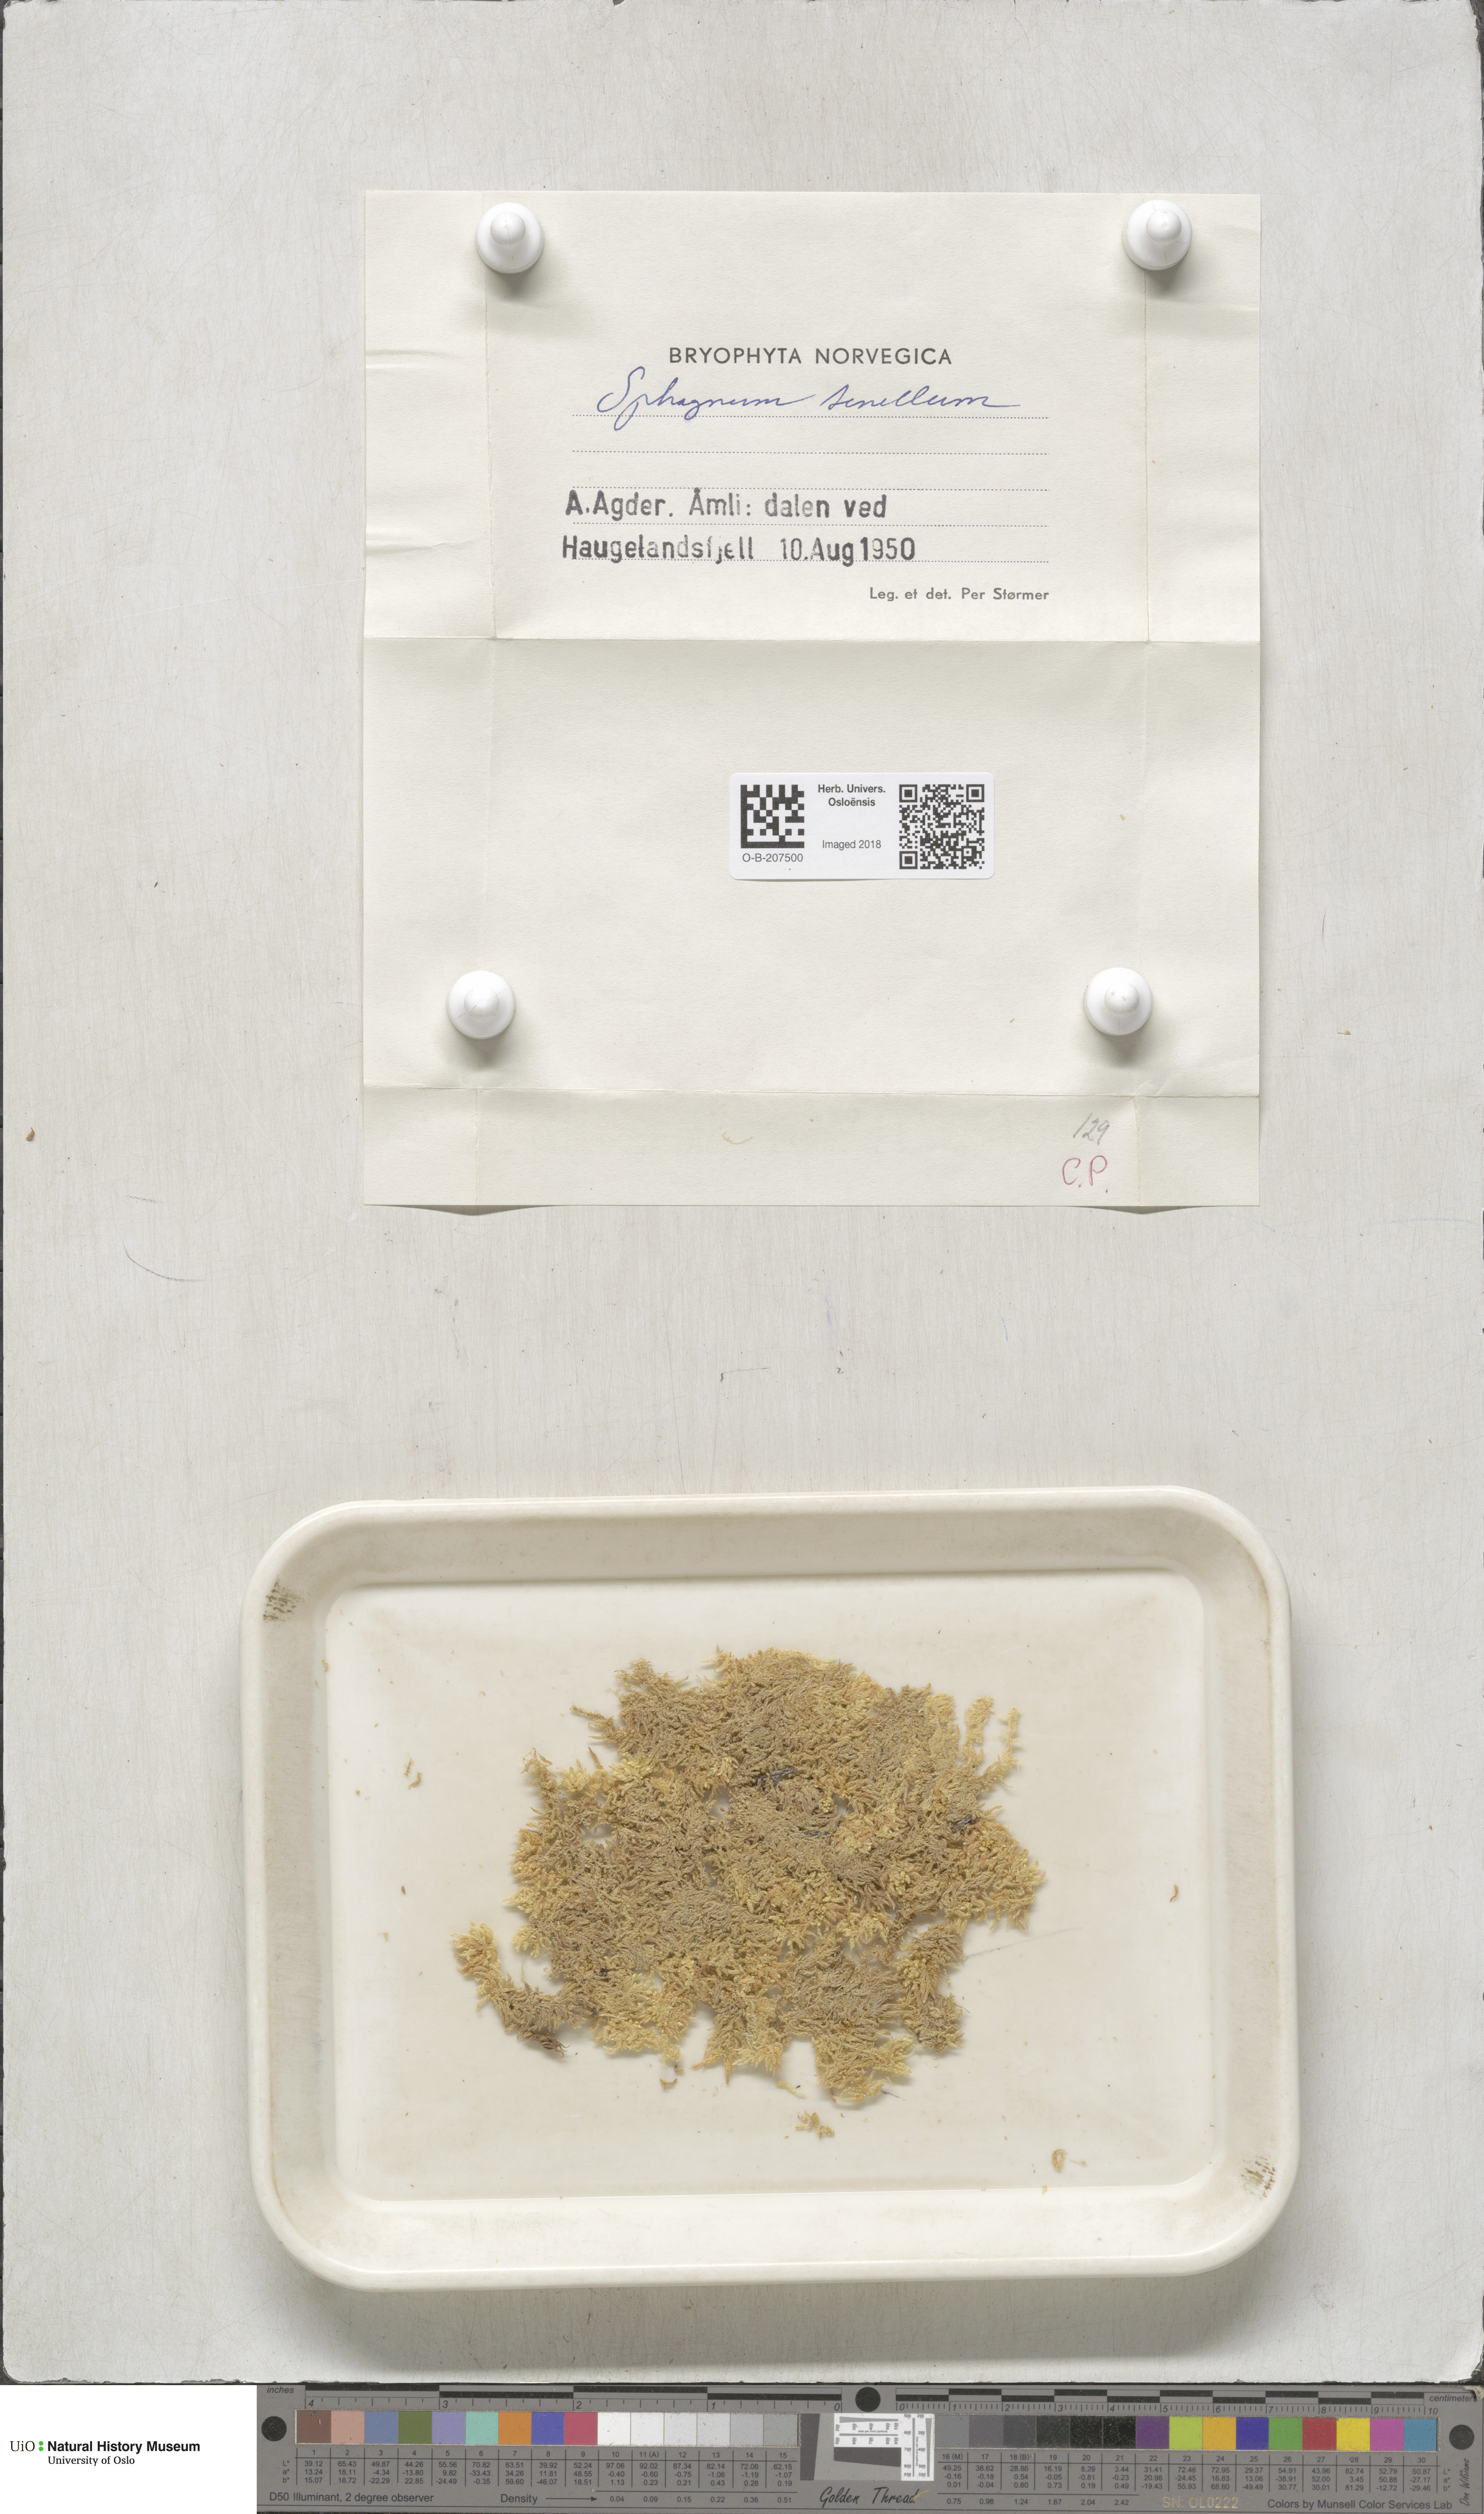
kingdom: Plantae
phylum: Bryophyta
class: Sphagnopsida
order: Sphagnales
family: Sphagnaceae
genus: Sphagnum
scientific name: Sphagnum tenellum
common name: Soft bog-moss
